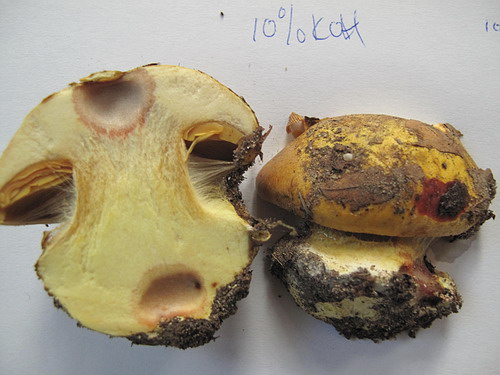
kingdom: Fungi
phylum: Basidiomycota
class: Agaricomycetes
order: Agaricales
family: Cortinariaceae
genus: Calonarius
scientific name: Calonarius alcalinophilus
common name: gyldenbrun slørhat
